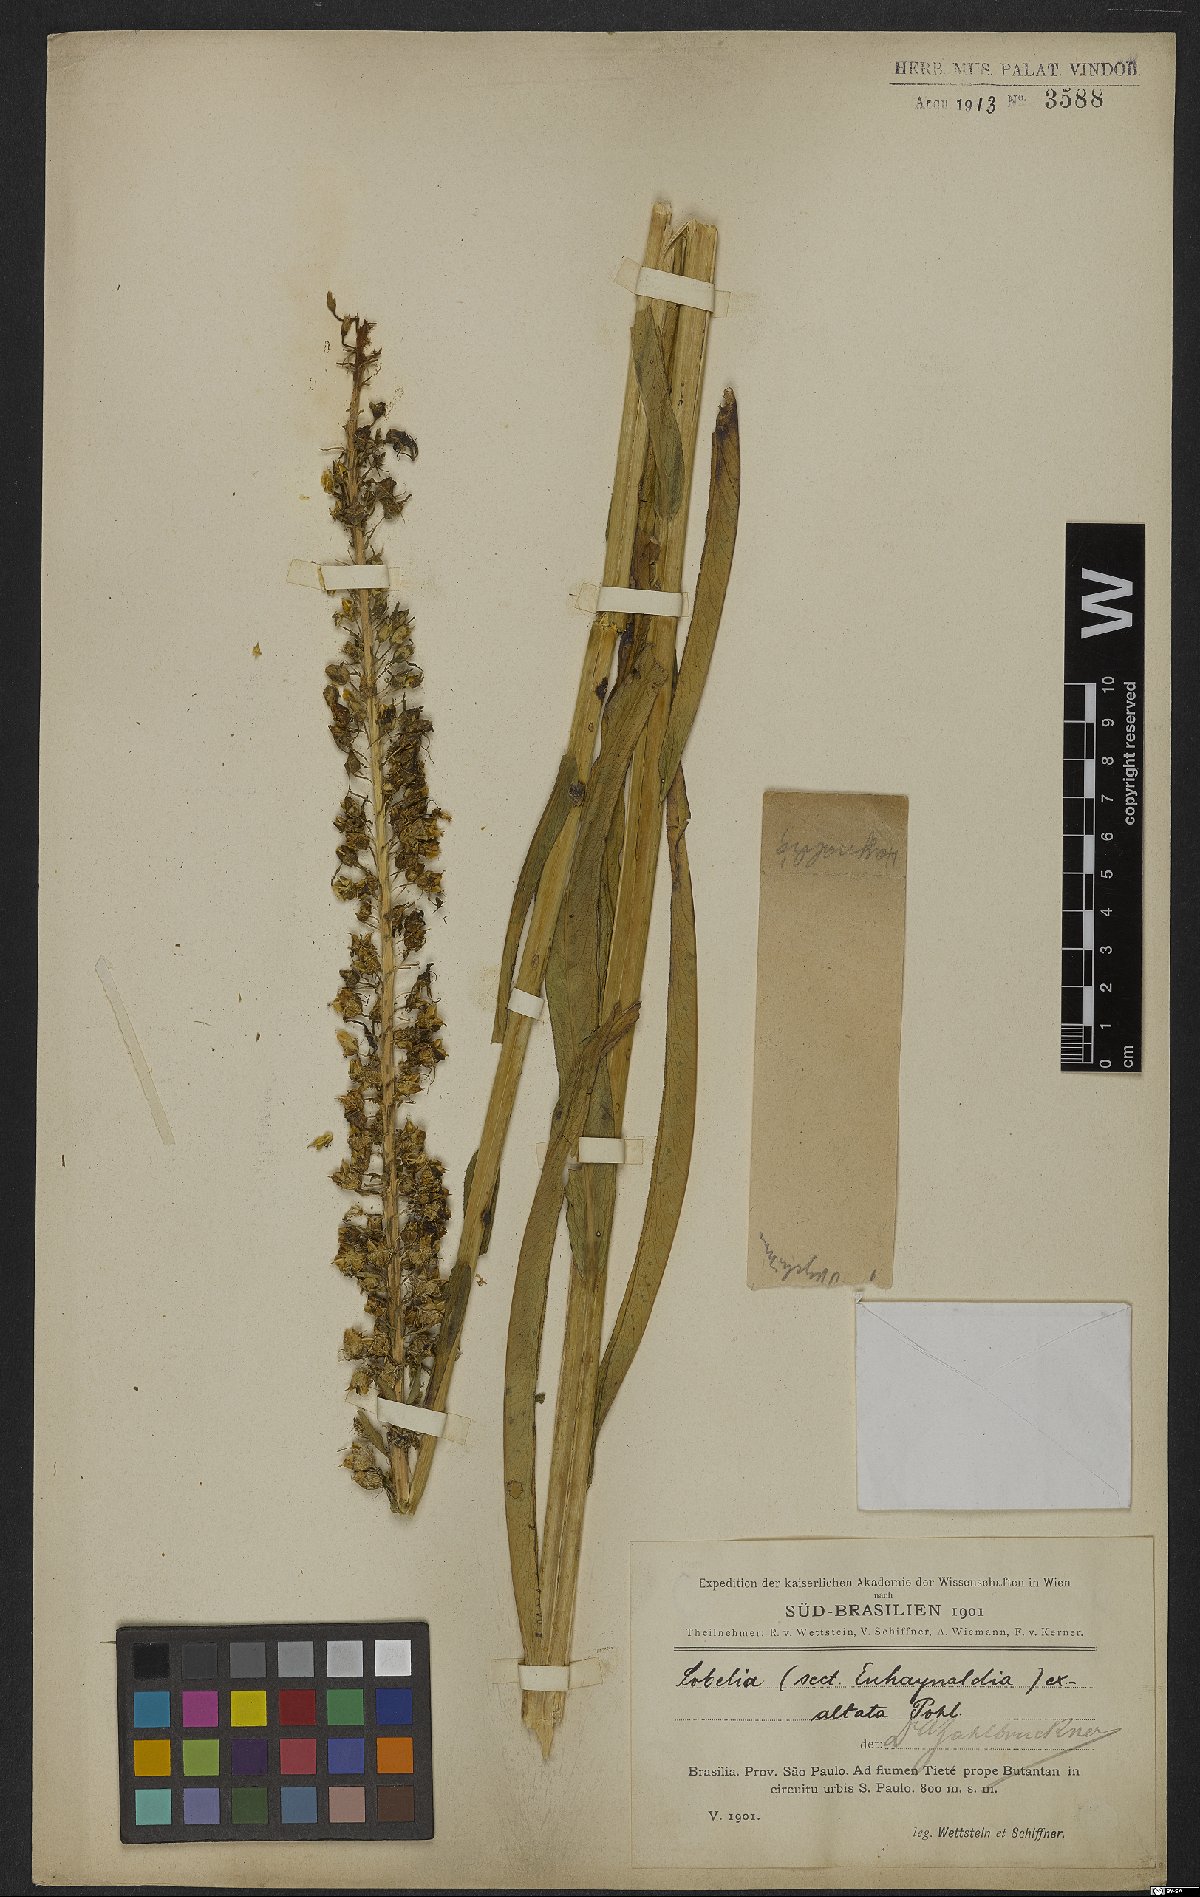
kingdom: Plantae
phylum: Tracheophyta
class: Magnoliopsida
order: Asterales
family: Campanulaceae
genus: Lobelia
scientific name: Lobelia exaltata
